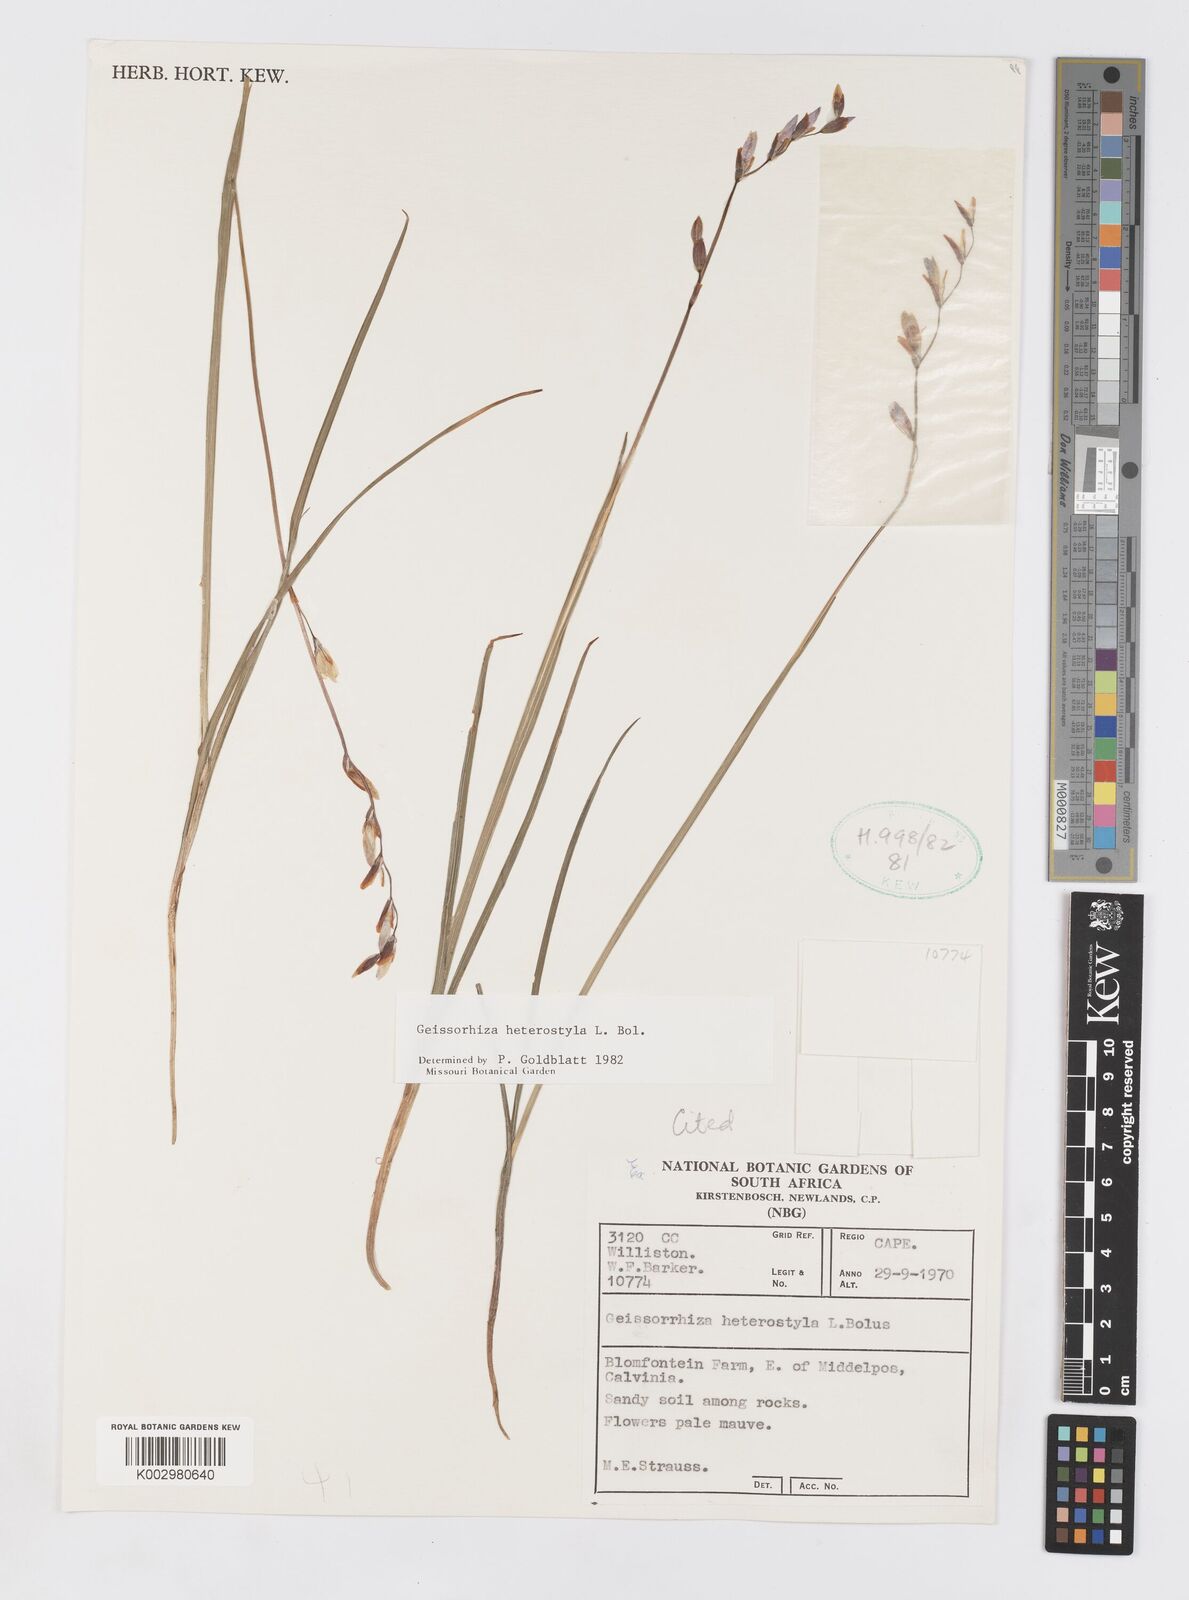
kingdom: Plantae
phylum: Tracheophyta
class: Liliopsida
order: Asparagales
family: Iridaceae
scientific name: Iridaceae
